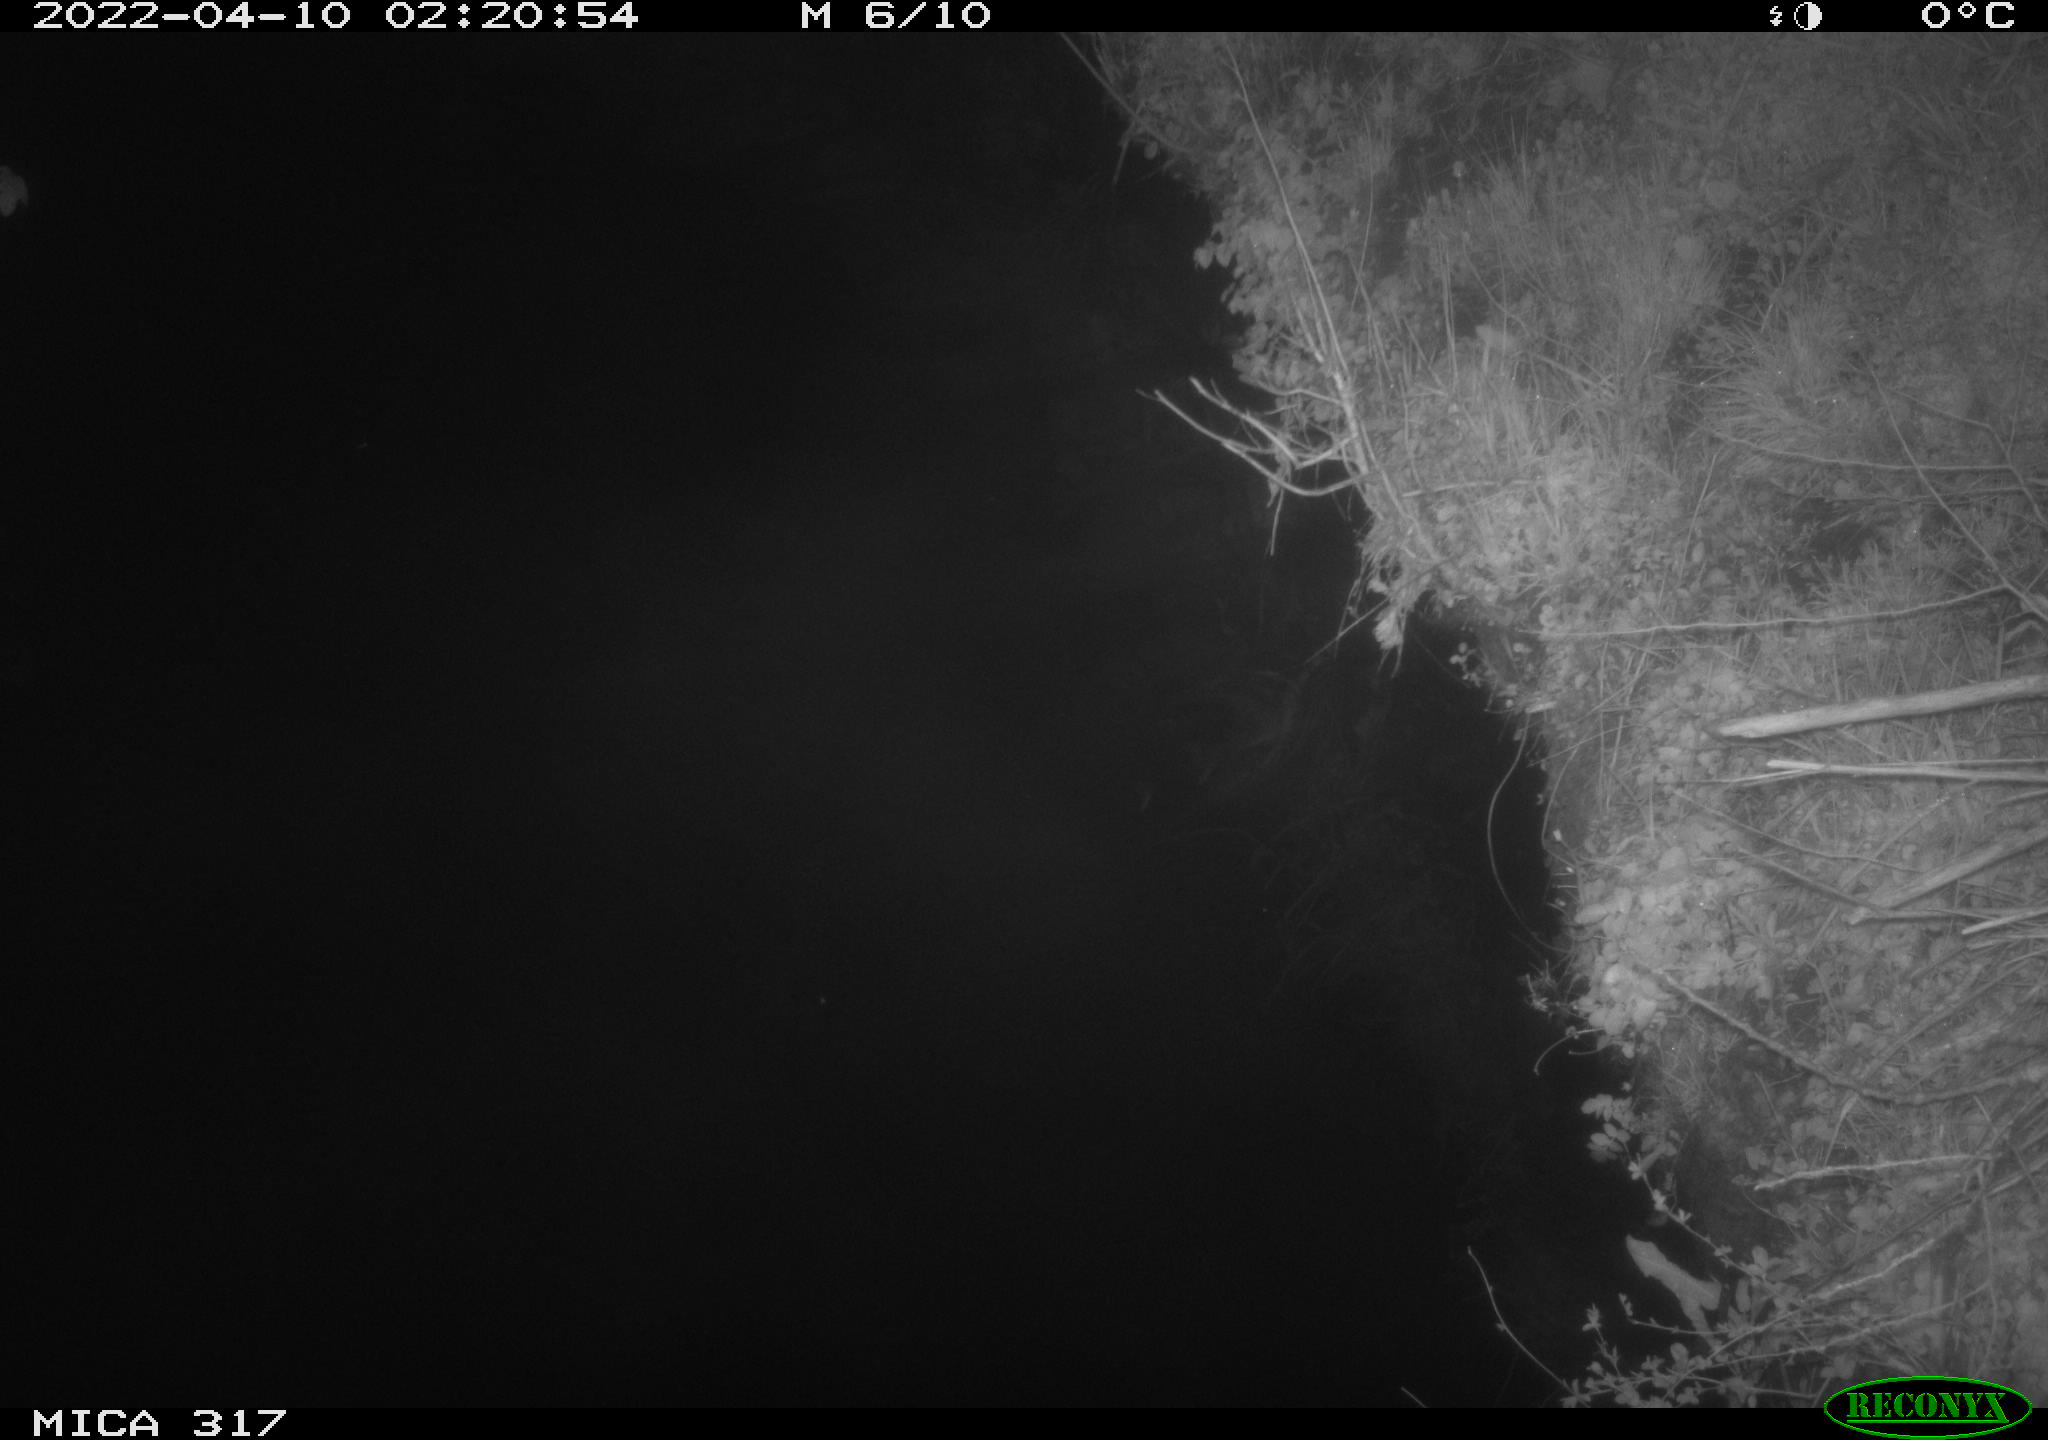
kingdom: Animalia
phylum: Chordata
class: Aves
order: Anseriformes
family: Anatidae
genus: Anas
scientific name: Anas platyrhynchos
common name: Mallard
